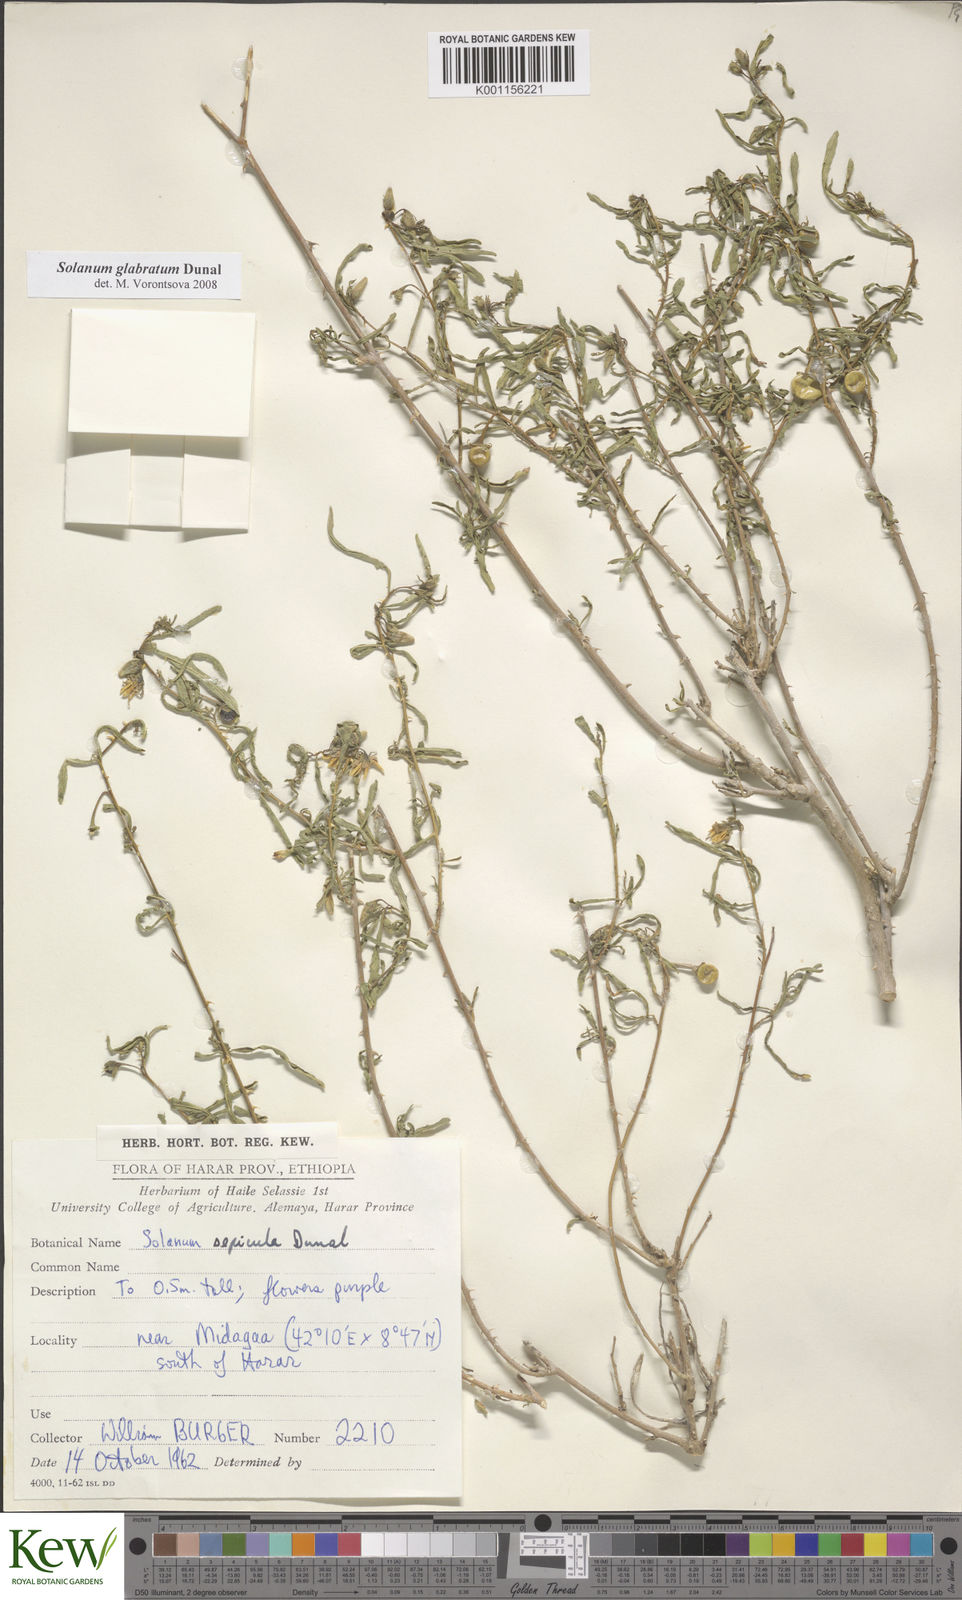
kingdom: Plantae
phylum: Tracheophyta
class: Magnoliopsida
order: Solanales
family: Solanaceae
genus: Solanum
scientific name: Solanum glabratum
